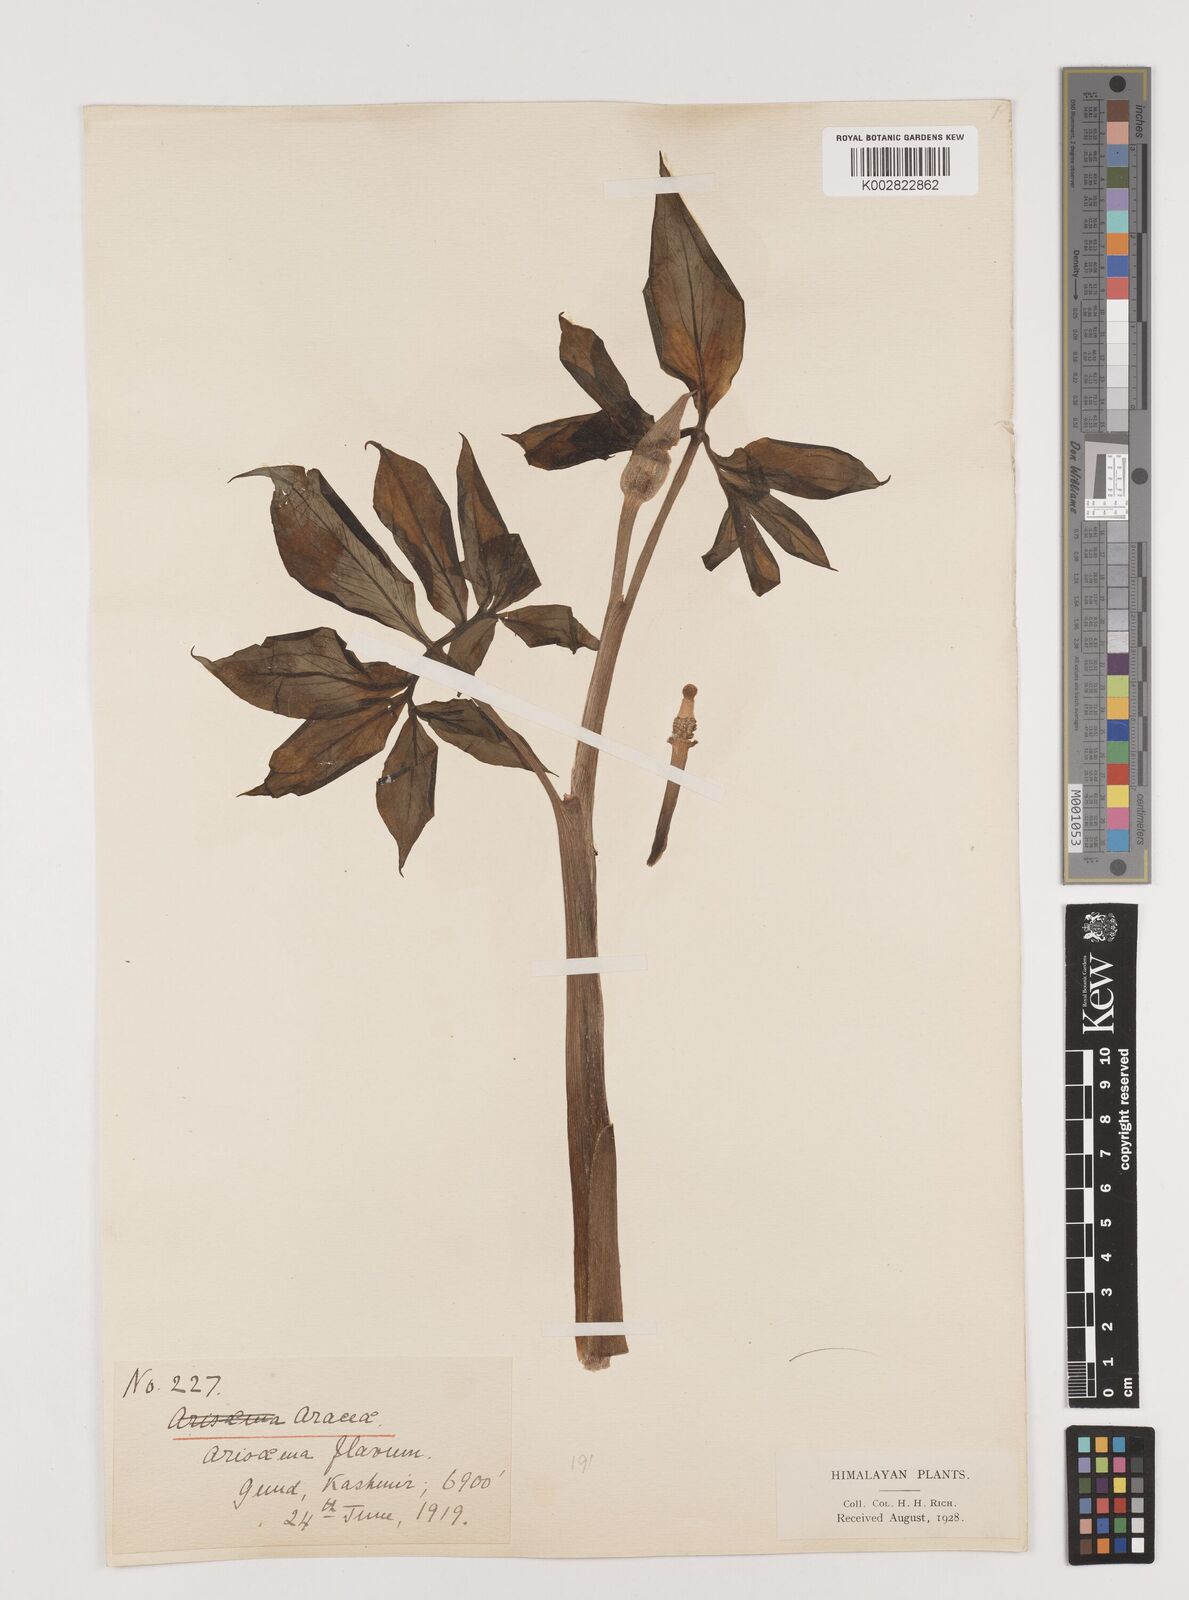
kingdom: Plantae
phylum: Tracheophyta
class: Liliopsida
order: Alismatales
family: Araceae
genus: Arisaema
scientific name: Arisaema flavum
